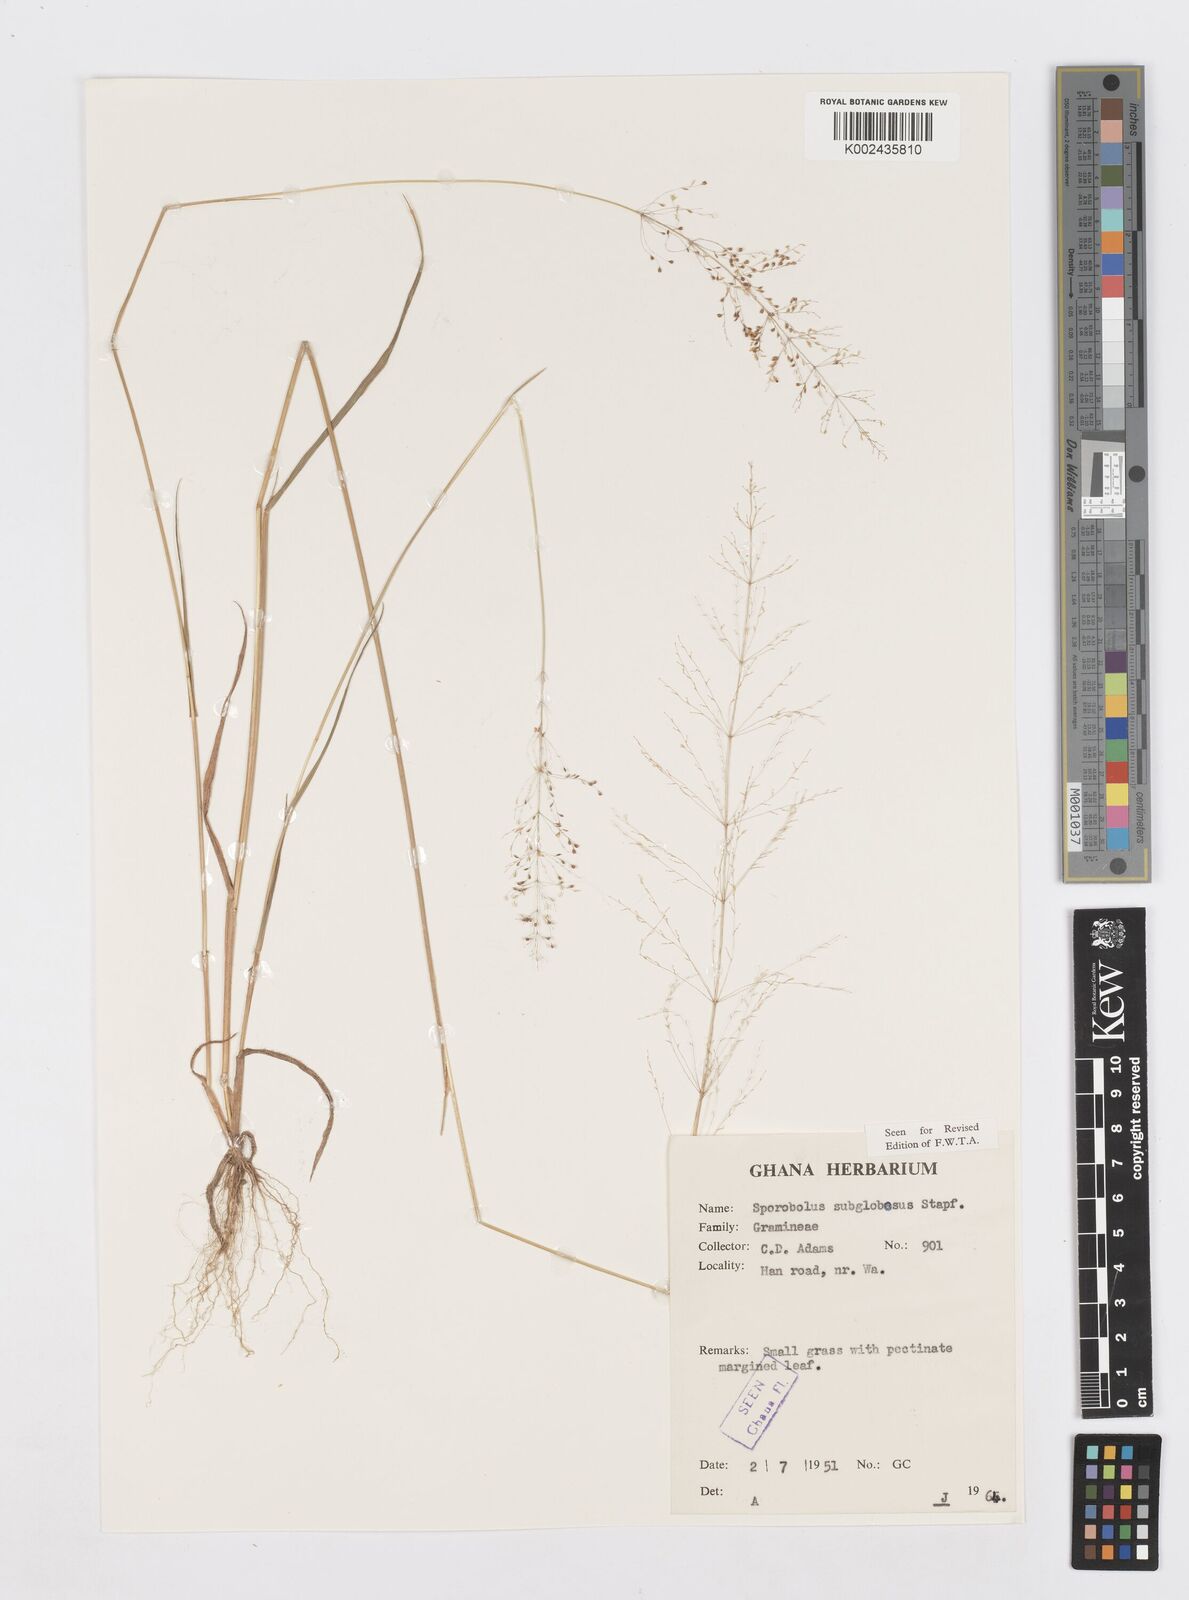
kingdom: Plantae
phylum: Tracheophyta
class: Liliopsida
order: Poales
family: Poaceae
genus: Sporobolus
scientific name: Sporobolus subglobosus
